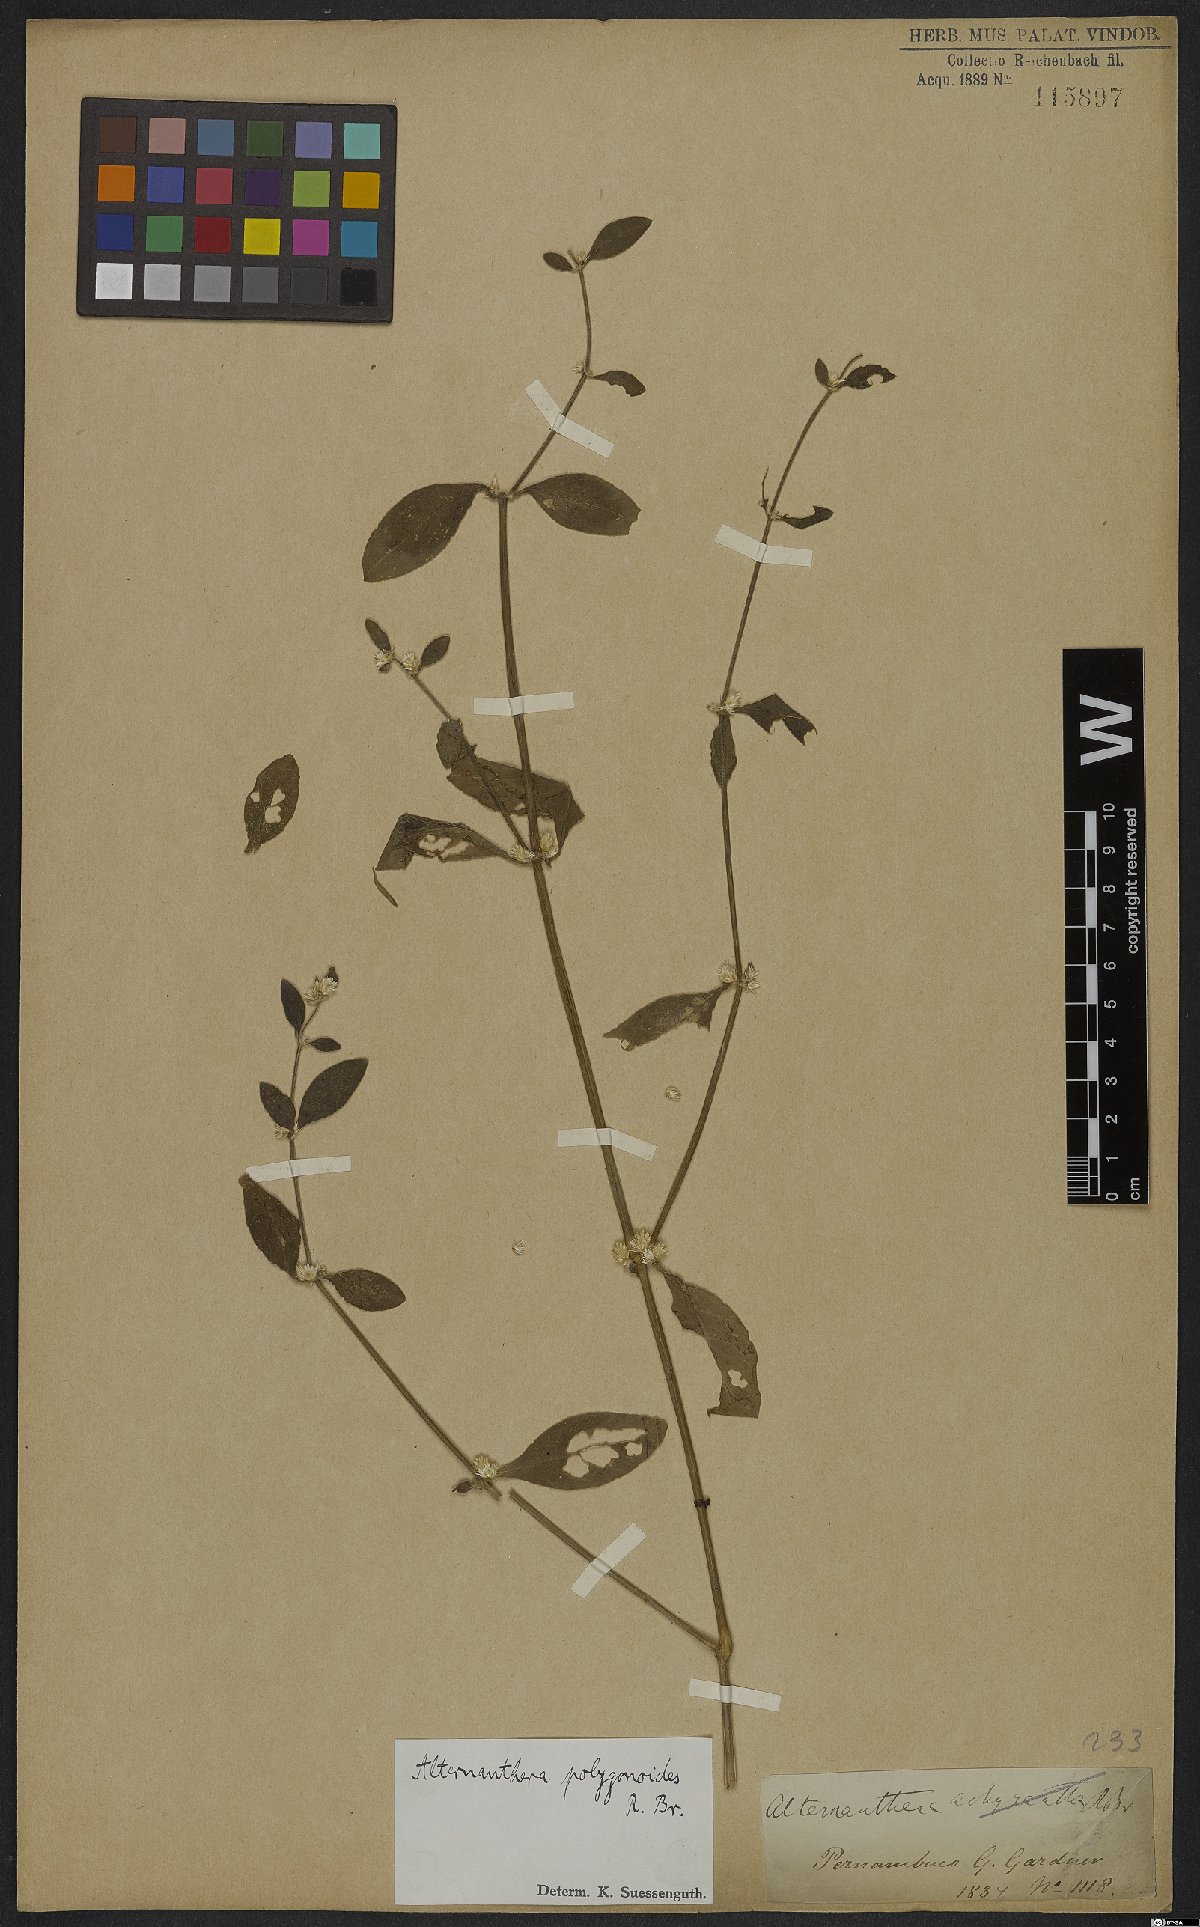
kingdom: Plantae
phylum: Tracheophyta
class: Magnoliopsida
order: Caryophyllales
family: Amaranthaceae
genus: Alternanthera
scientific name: Alternanthera sessilis
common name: Sessile joyweed
